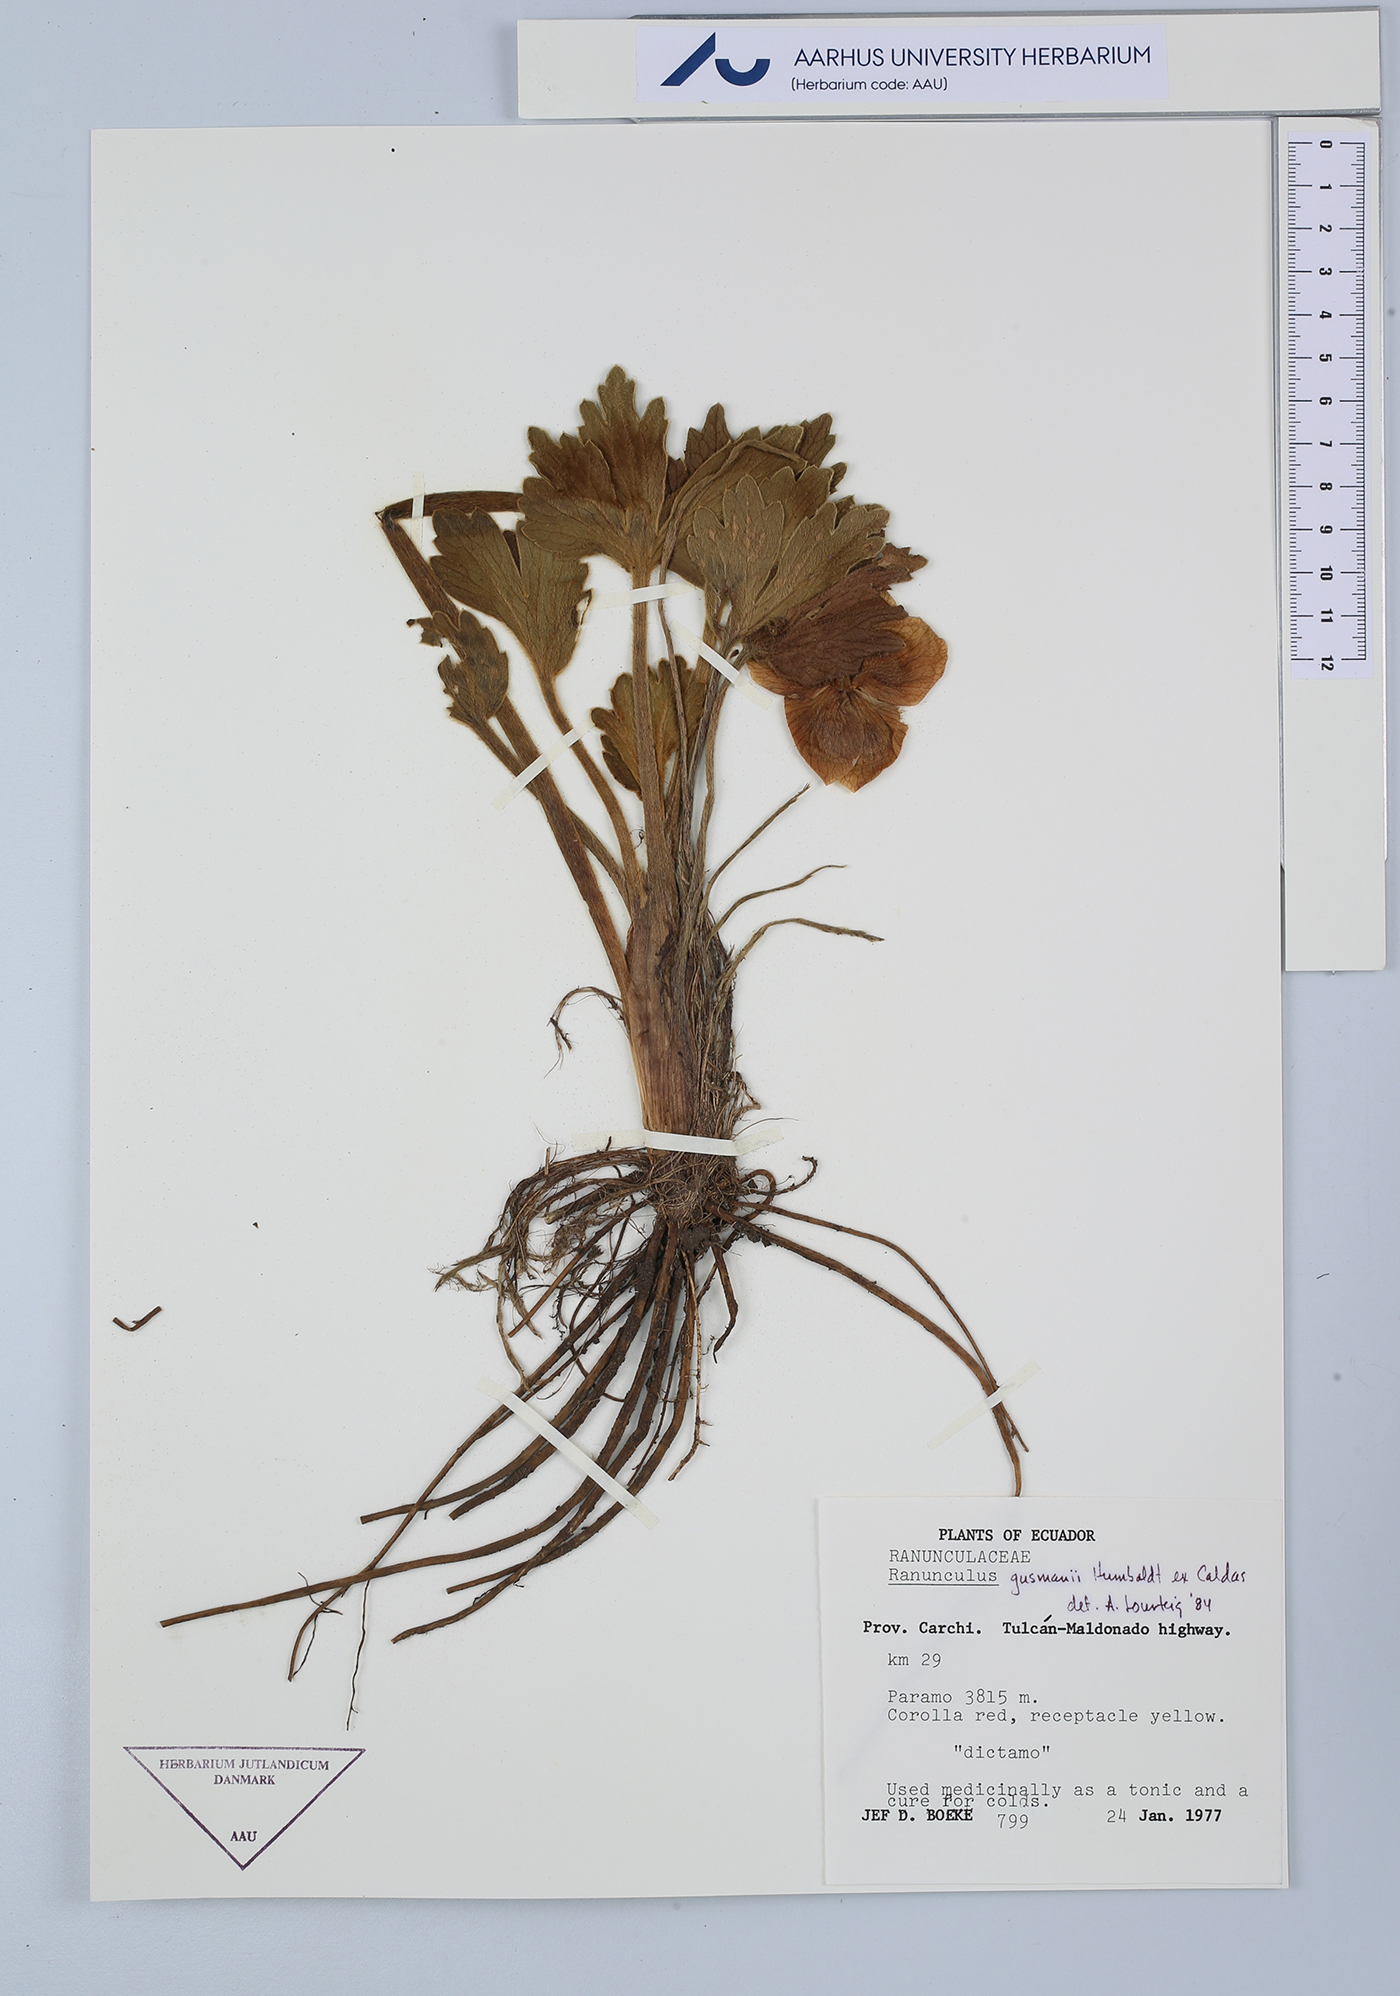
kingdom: Plantae
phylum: Tracheophyta
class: Magnoliopsida
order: Ranunculales
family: Ranunculaceae
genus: Krapfia
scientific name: Krapfia ranunculina
